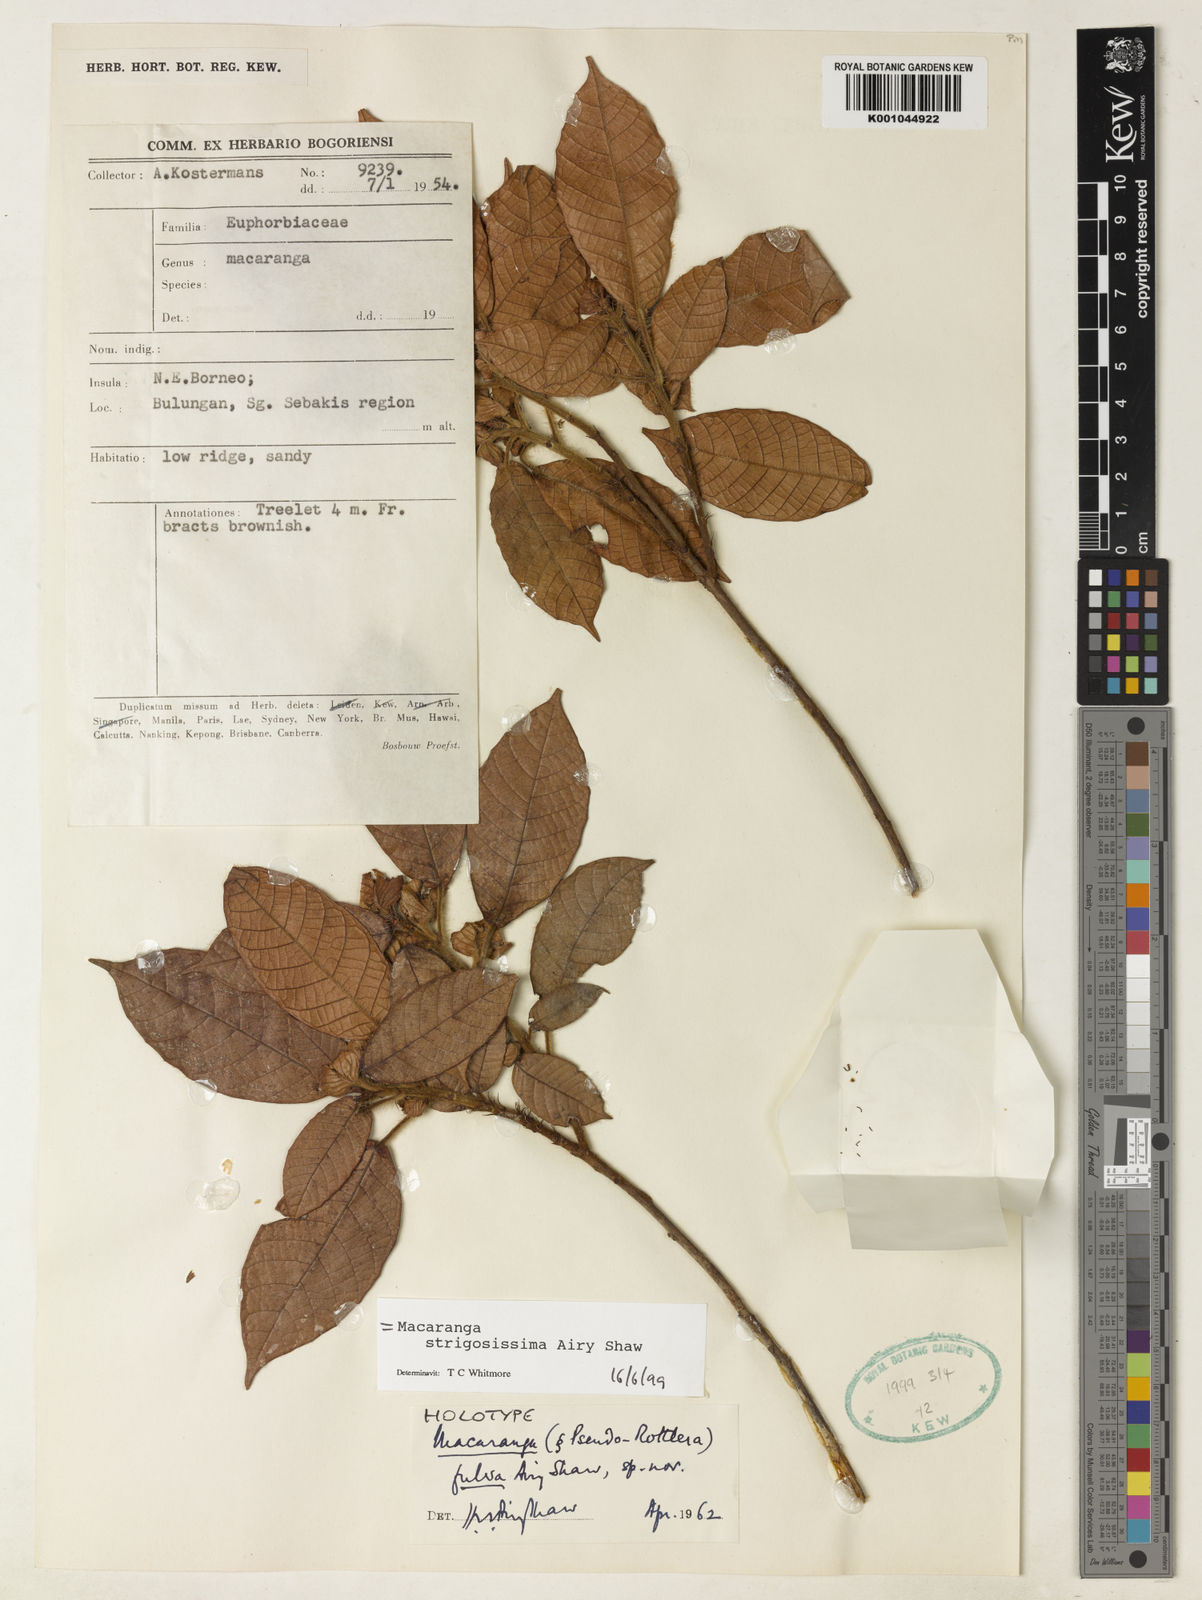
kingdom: Plantae
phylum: Tracheophyta
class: Magnoliopsida
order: Malpighiales
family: Euphorbiaceae
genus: Macaranga
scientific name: Macaranga strigosissima
